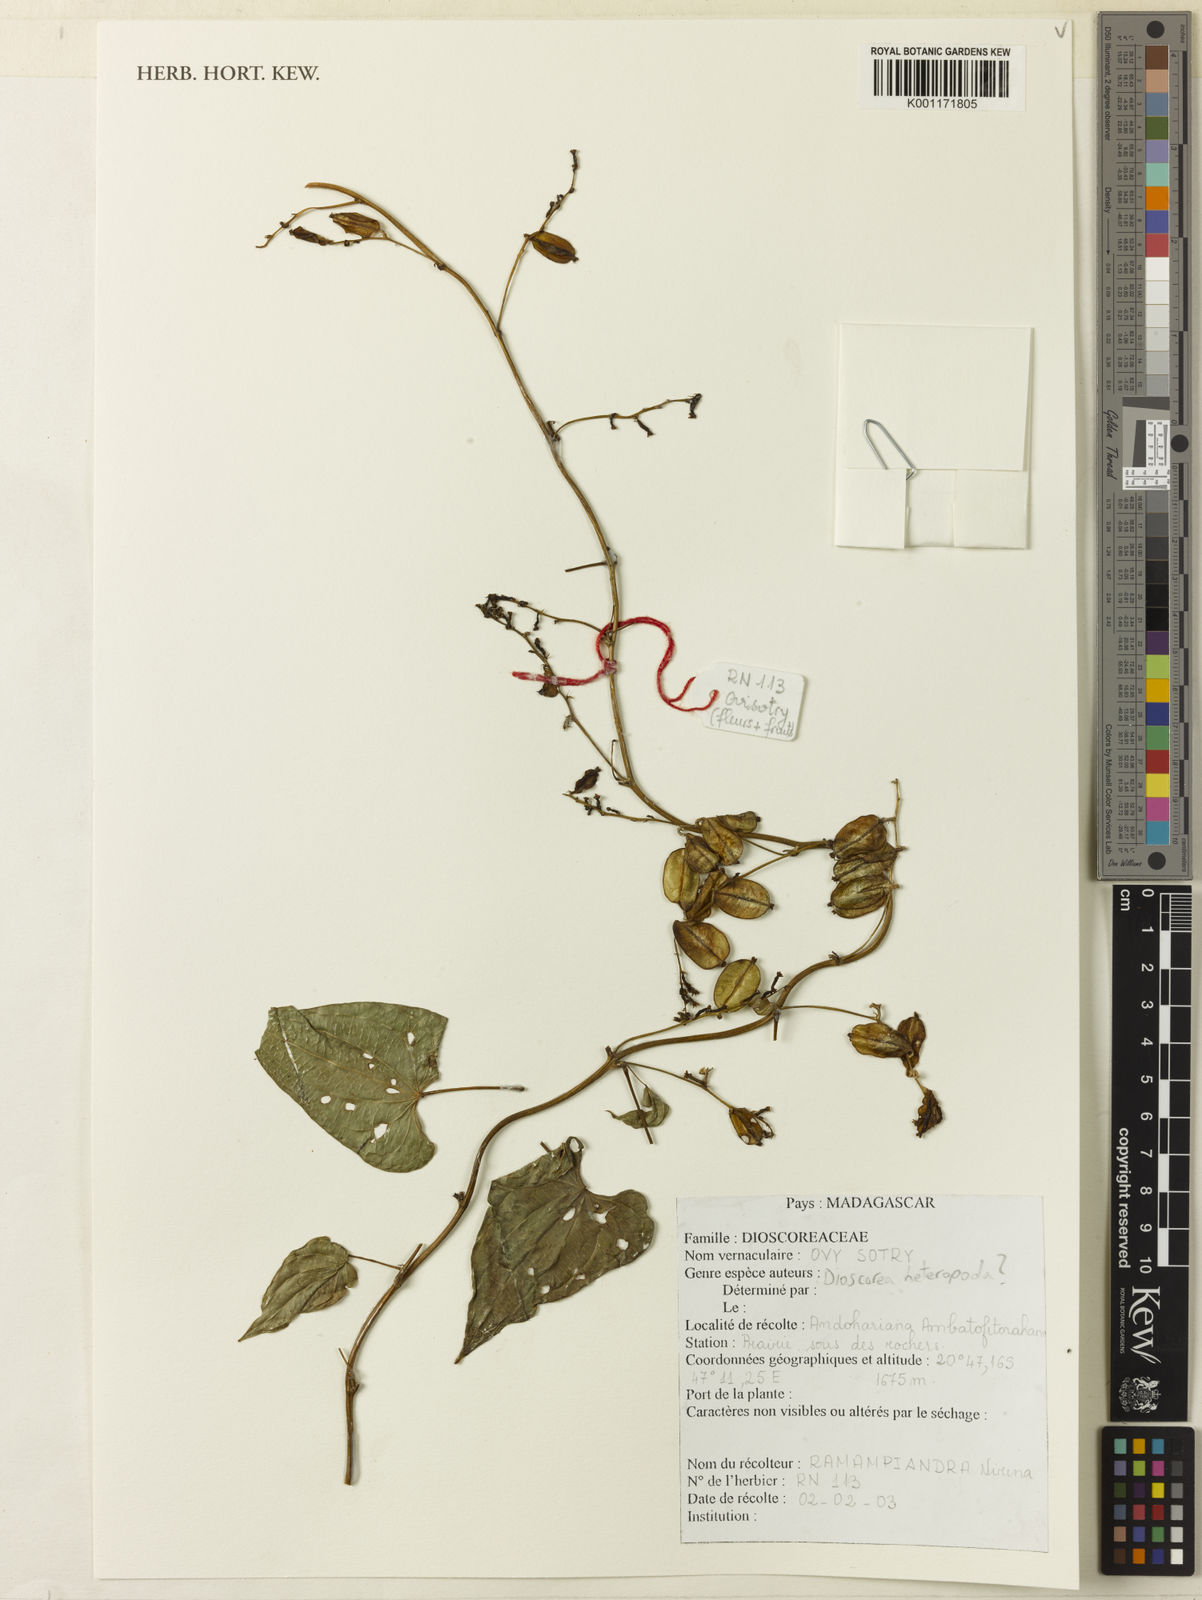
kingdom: Plantae
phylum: Tracheophyta
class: Liliopsida
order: Dioscoreales
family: Dioscoreaceae
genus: Dioscorea
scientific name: Dioscorea heteropoda
